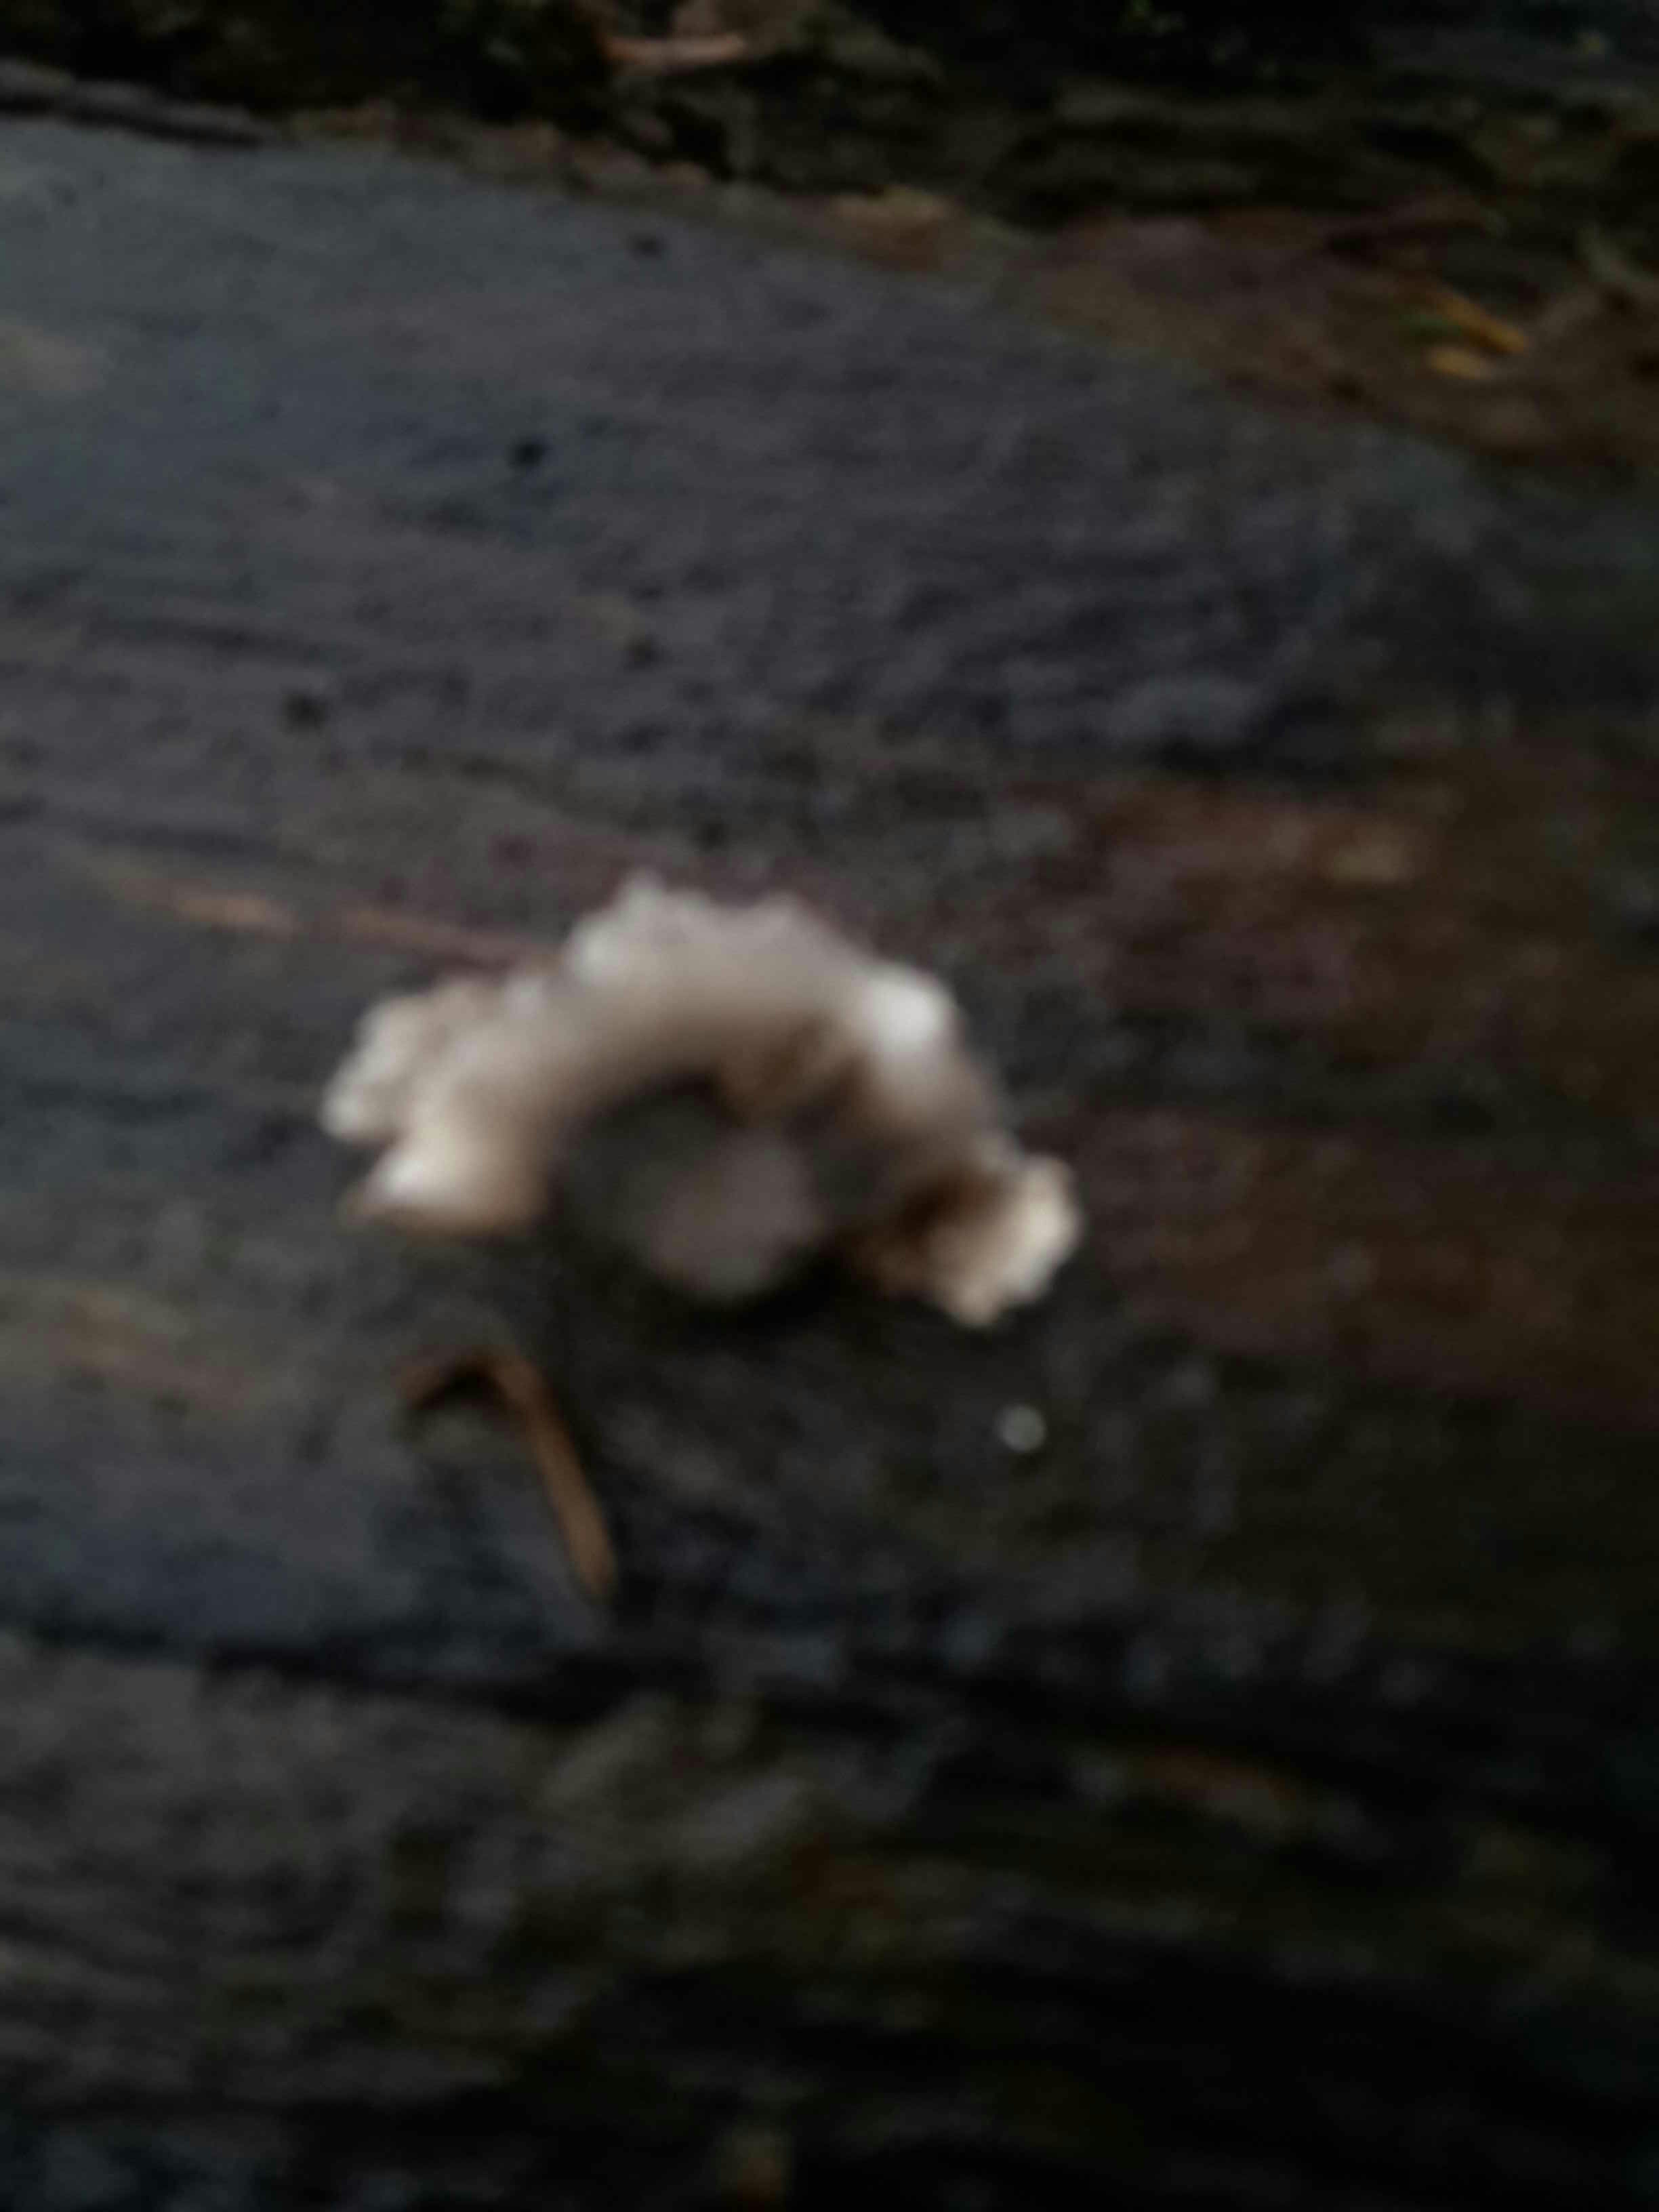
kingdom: Fungi
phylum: Basidiomycota
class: Agaricomycetes
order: Polyporales
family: Phanerochaetaceae
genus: Bjerkandera
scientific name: Bjerkandera adusta
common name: sveden sodporesvamp
